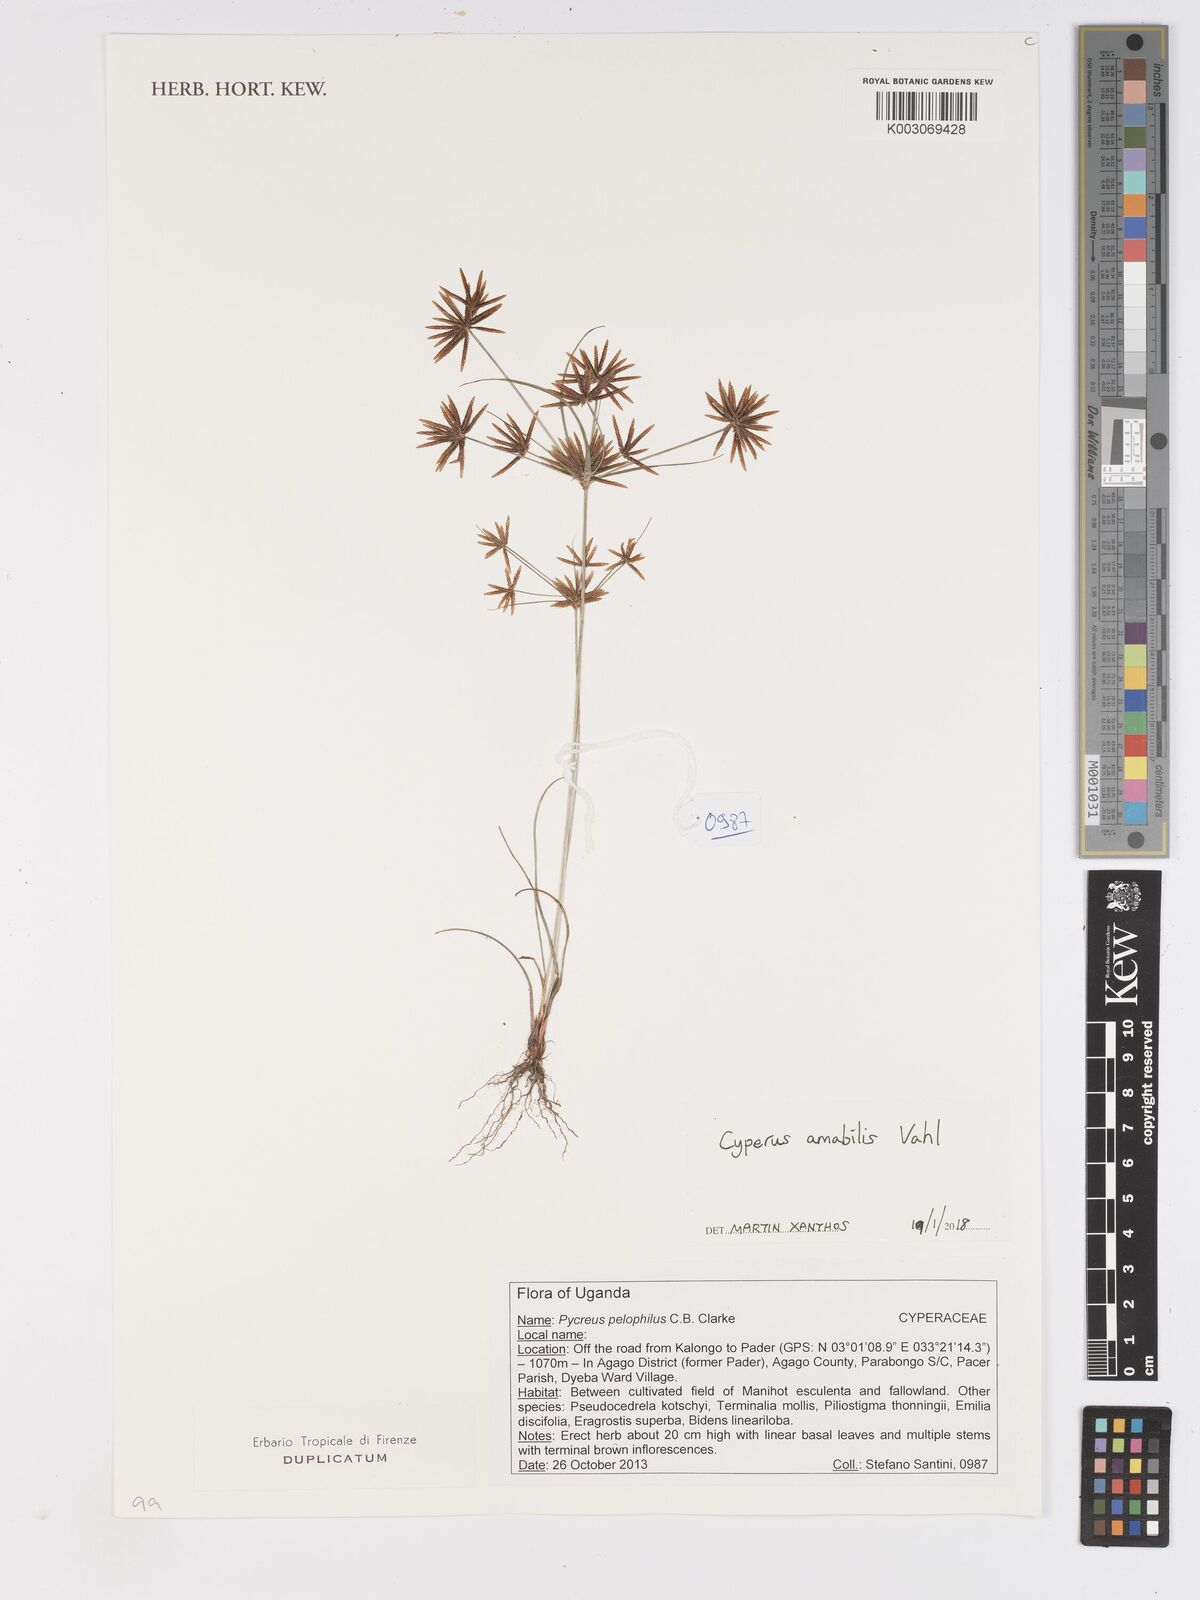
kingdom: Plantae
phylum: Tracheophyta
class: Liliopsida
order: Poales
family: Cyperaceae
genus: Cyperus
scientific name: Cyperus amabilis
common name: Foothill flat sedge
